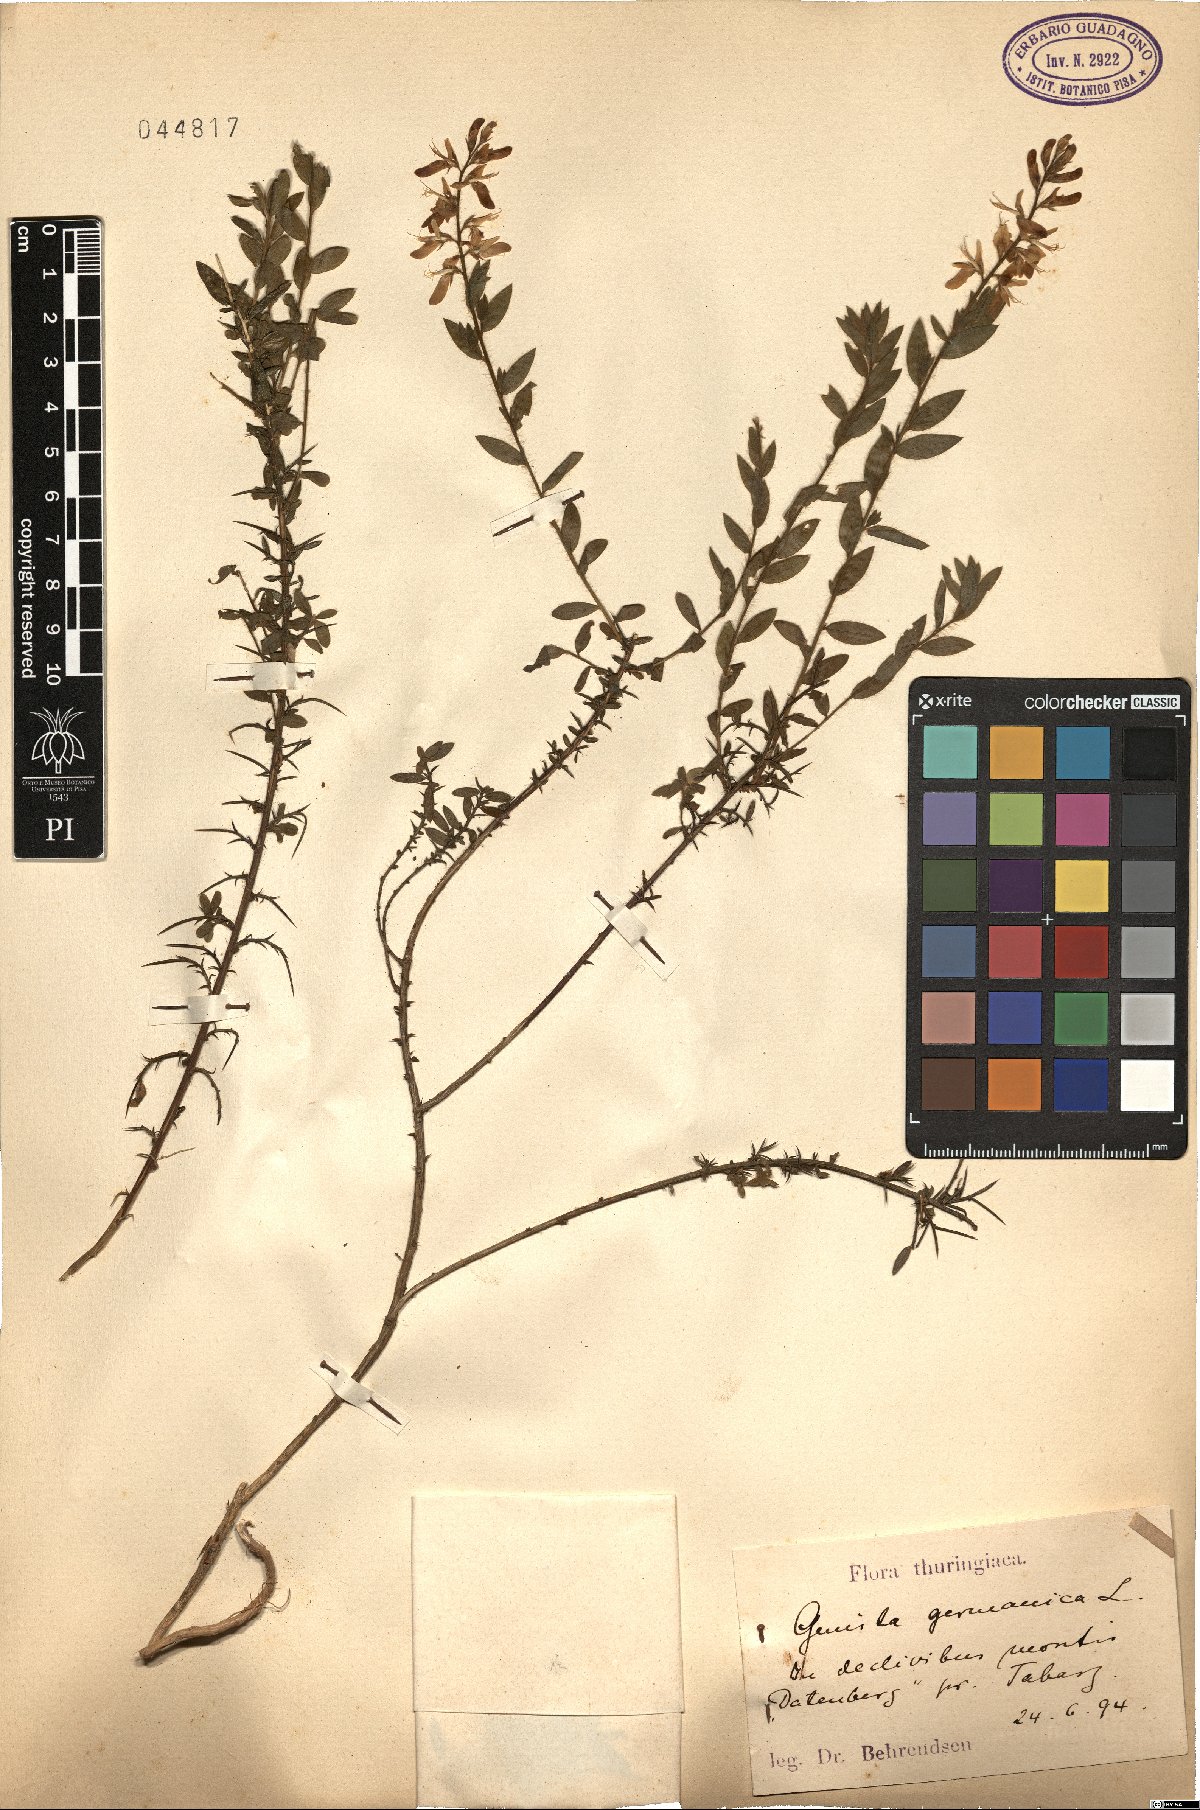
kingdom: Plantae
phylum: Tracheophyta
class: Magnoliopsida
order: Fabales
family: Fabaceae
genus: Genista
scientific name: Genista germanica
